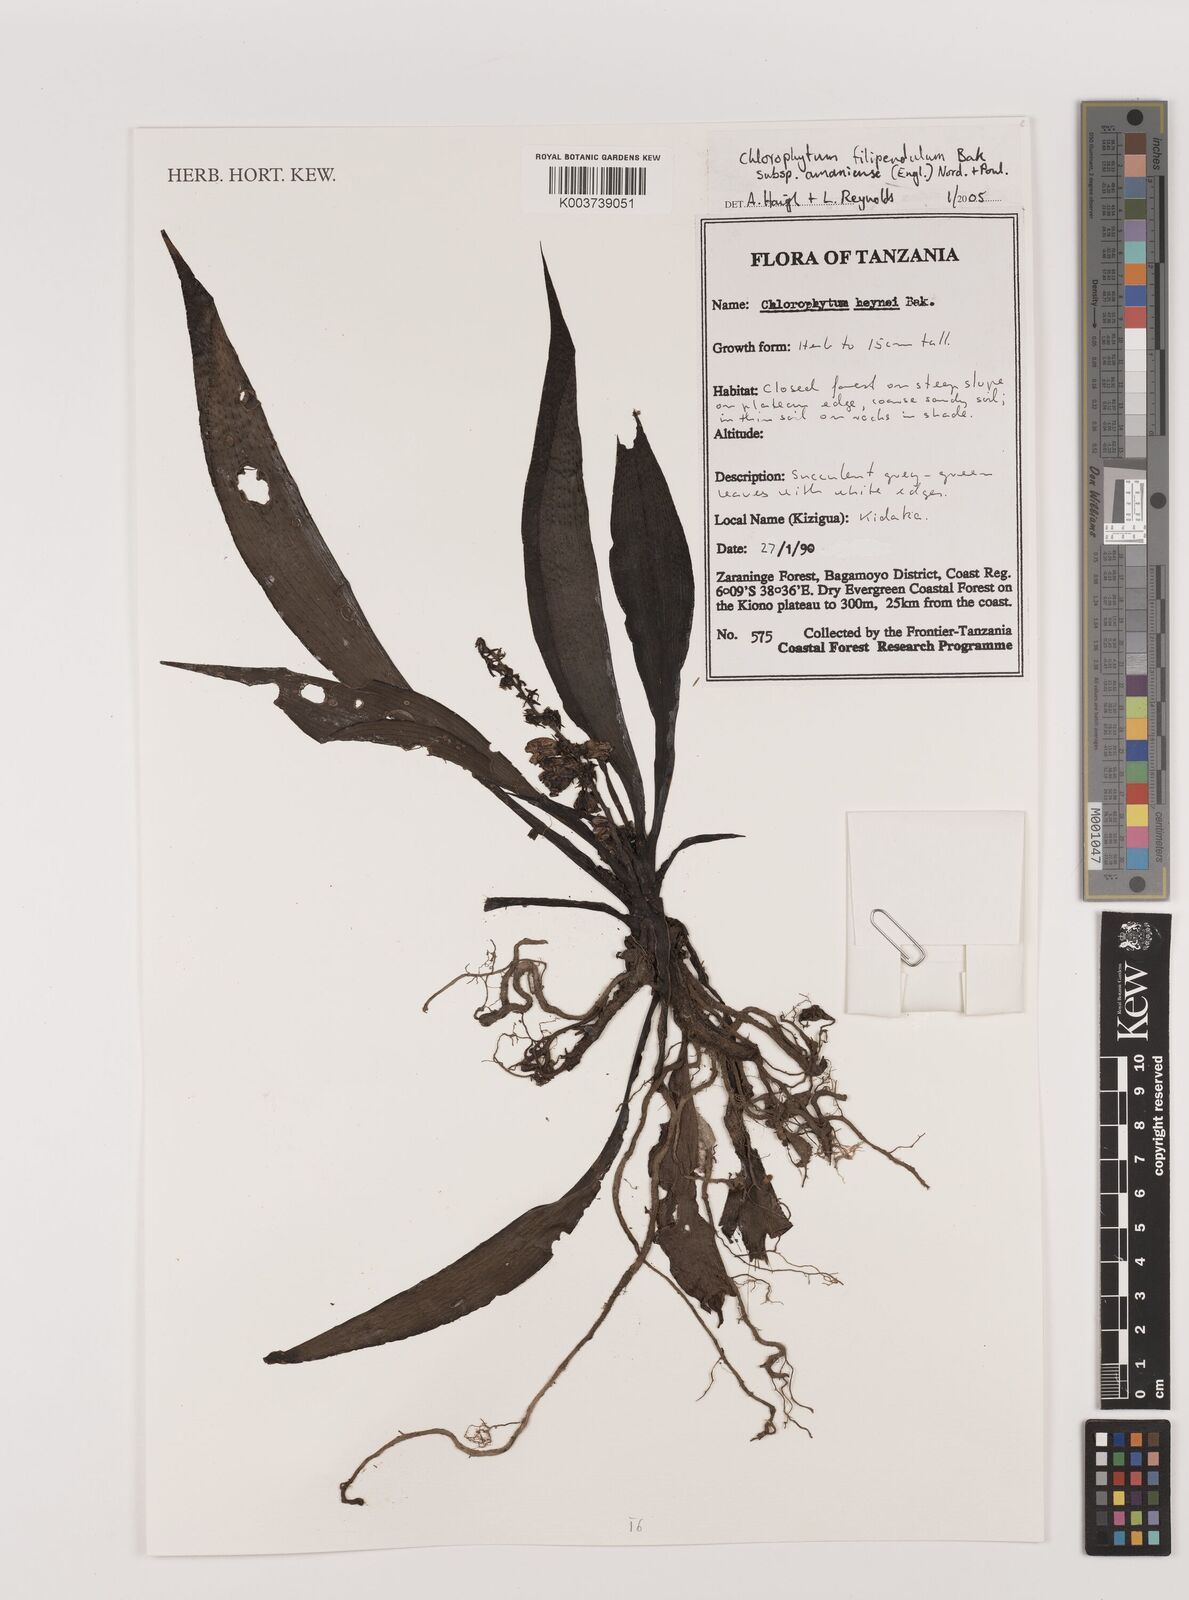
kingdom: Plantae
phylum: Tracheophyta
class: Liliopsida
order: Asparagales
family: Asparagaceae
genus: Chlorophytum
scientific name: Chlorophytum filipendulum
